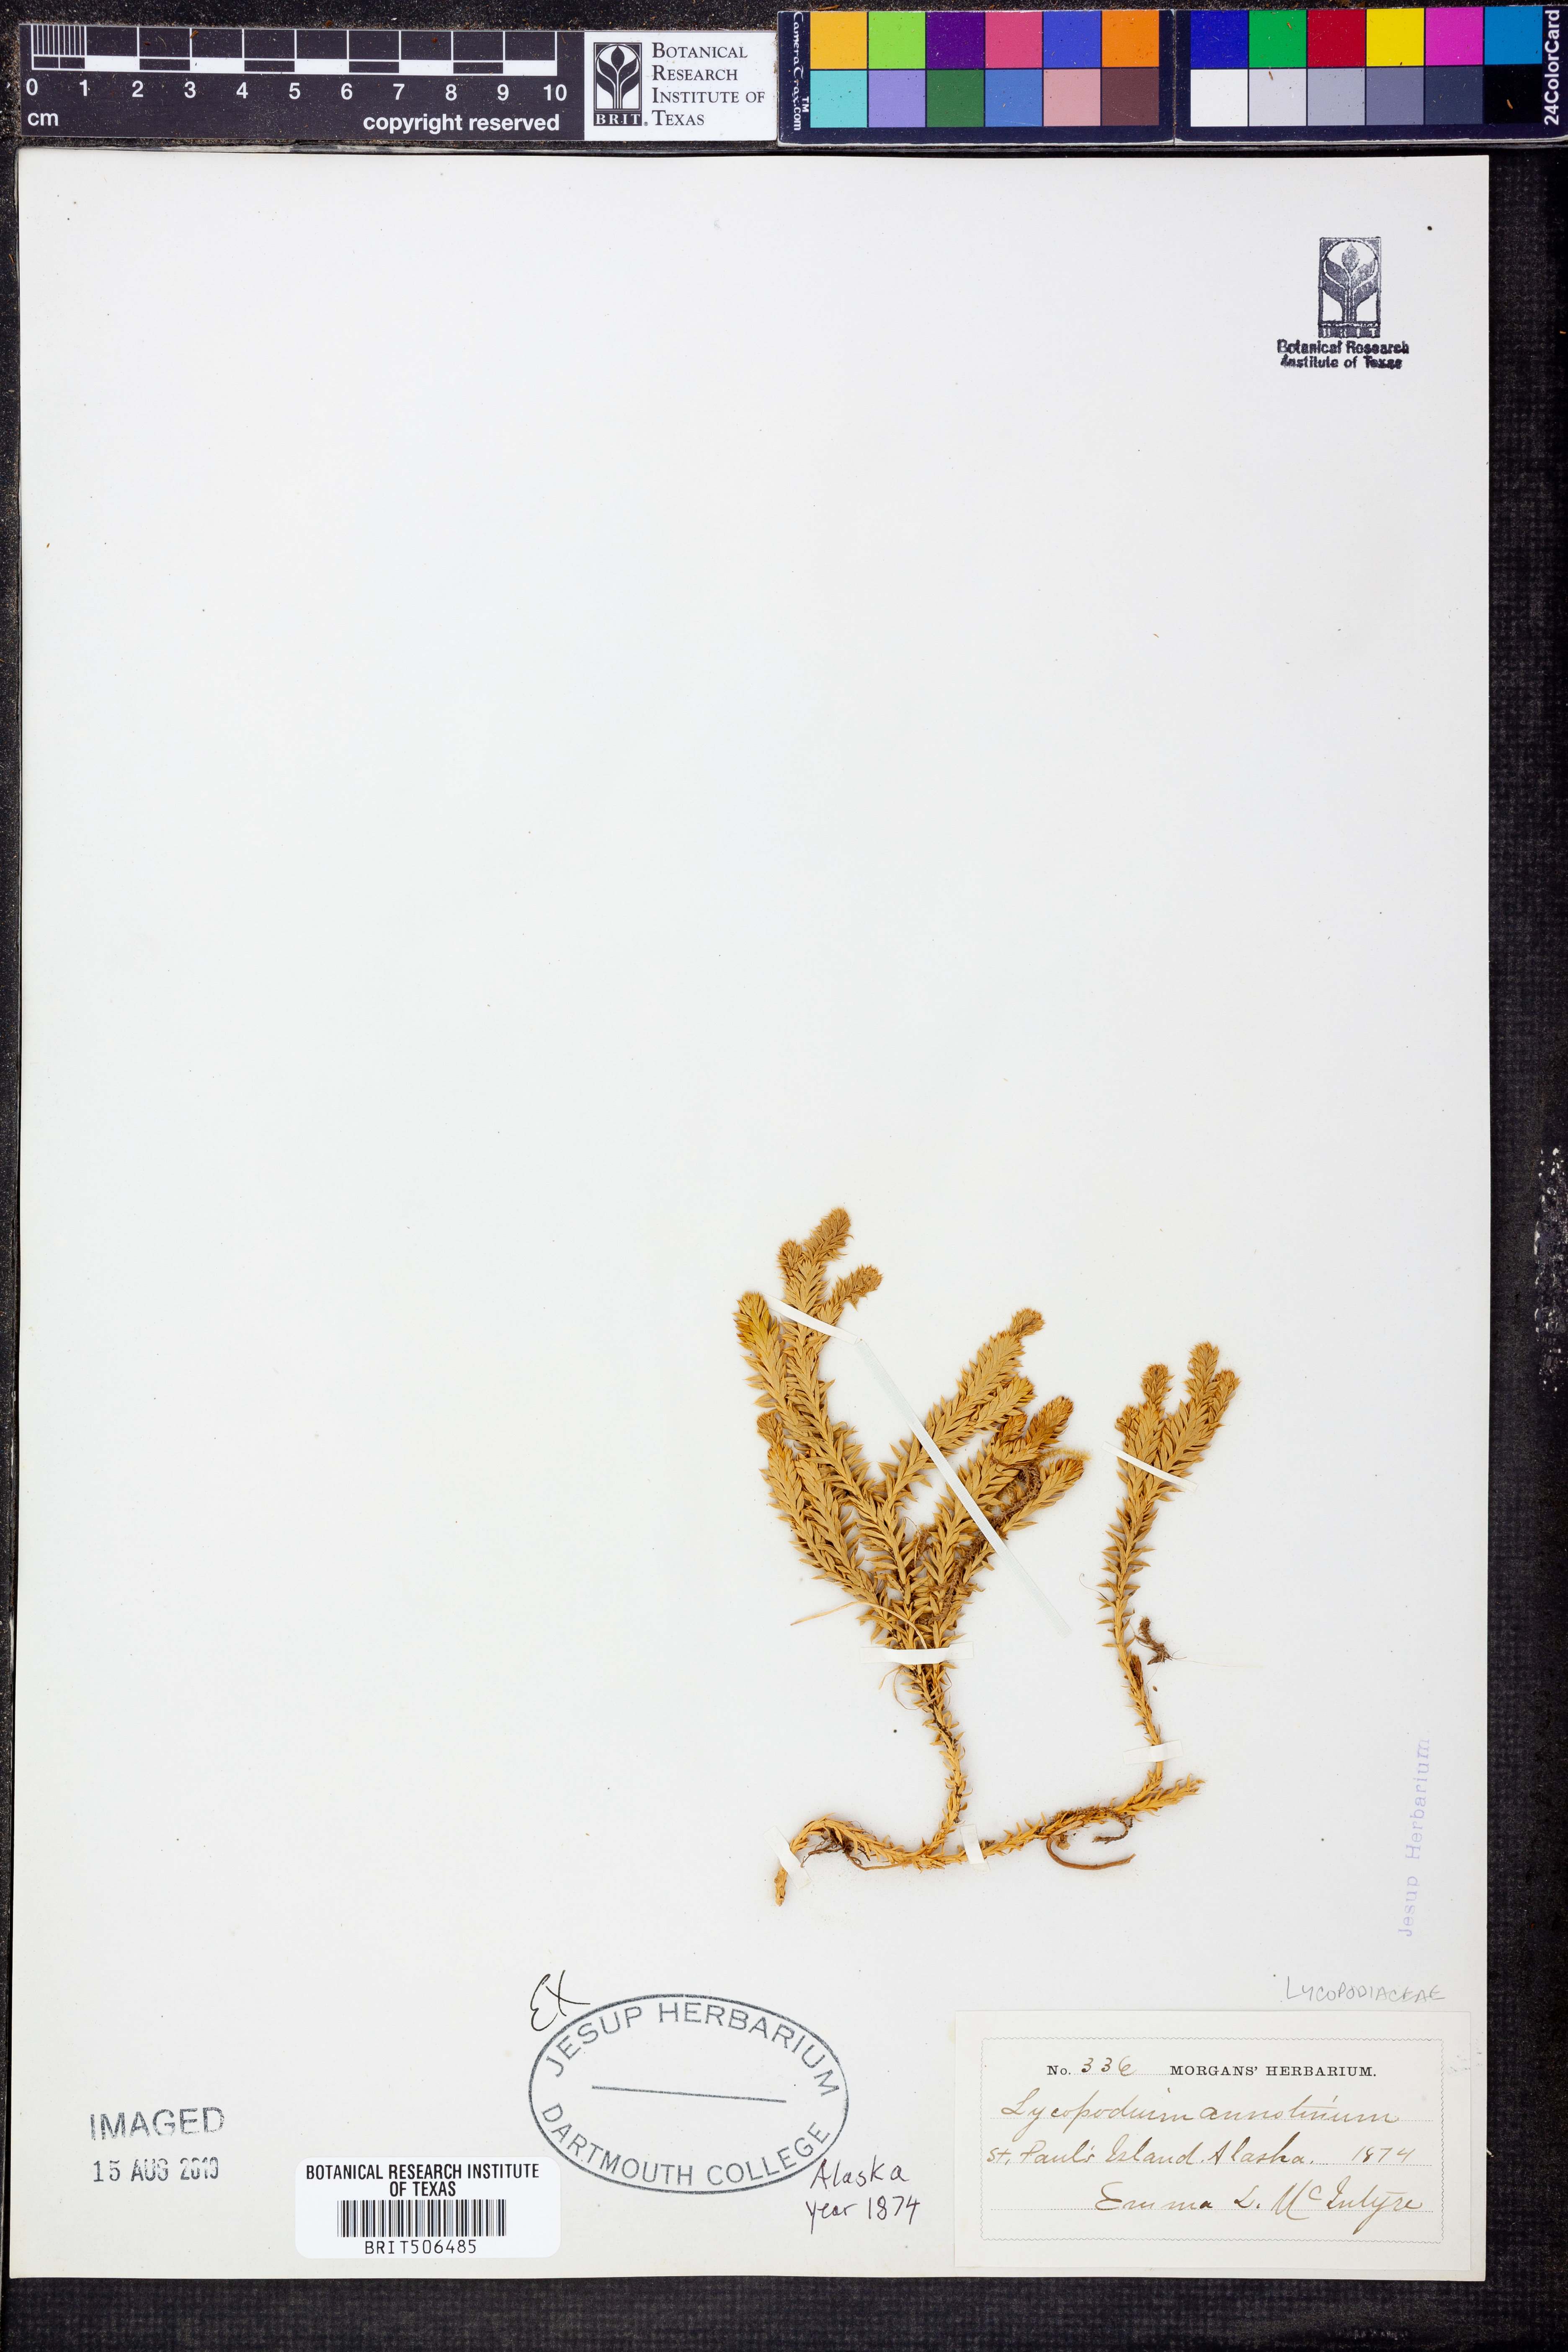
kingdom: Plantae
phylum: Tracheophyta
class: Lycopodiopsida
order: Lycopodiales
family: Lycopodiaceae
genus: Spinulum
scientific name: Spinulum annotinum
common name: Interrupted club-moss
